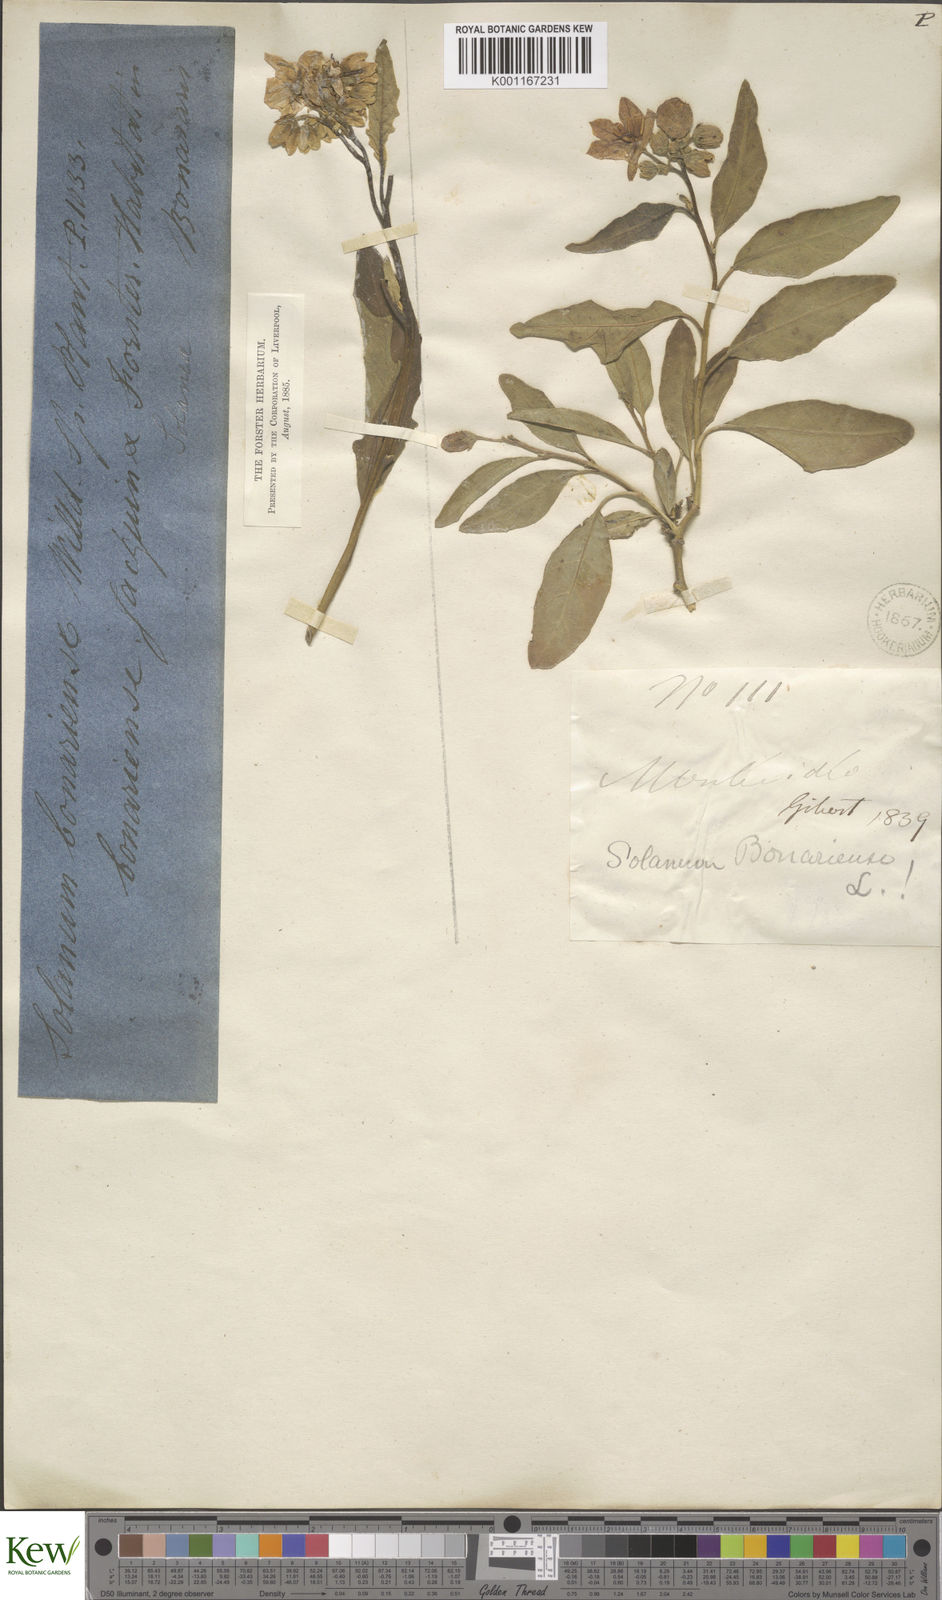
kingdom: Plantae
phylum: Tracheophyta
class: Magnoliopsida
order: Solanales
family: Solanaceae
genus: Solanum
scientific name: Solanum bonariense
